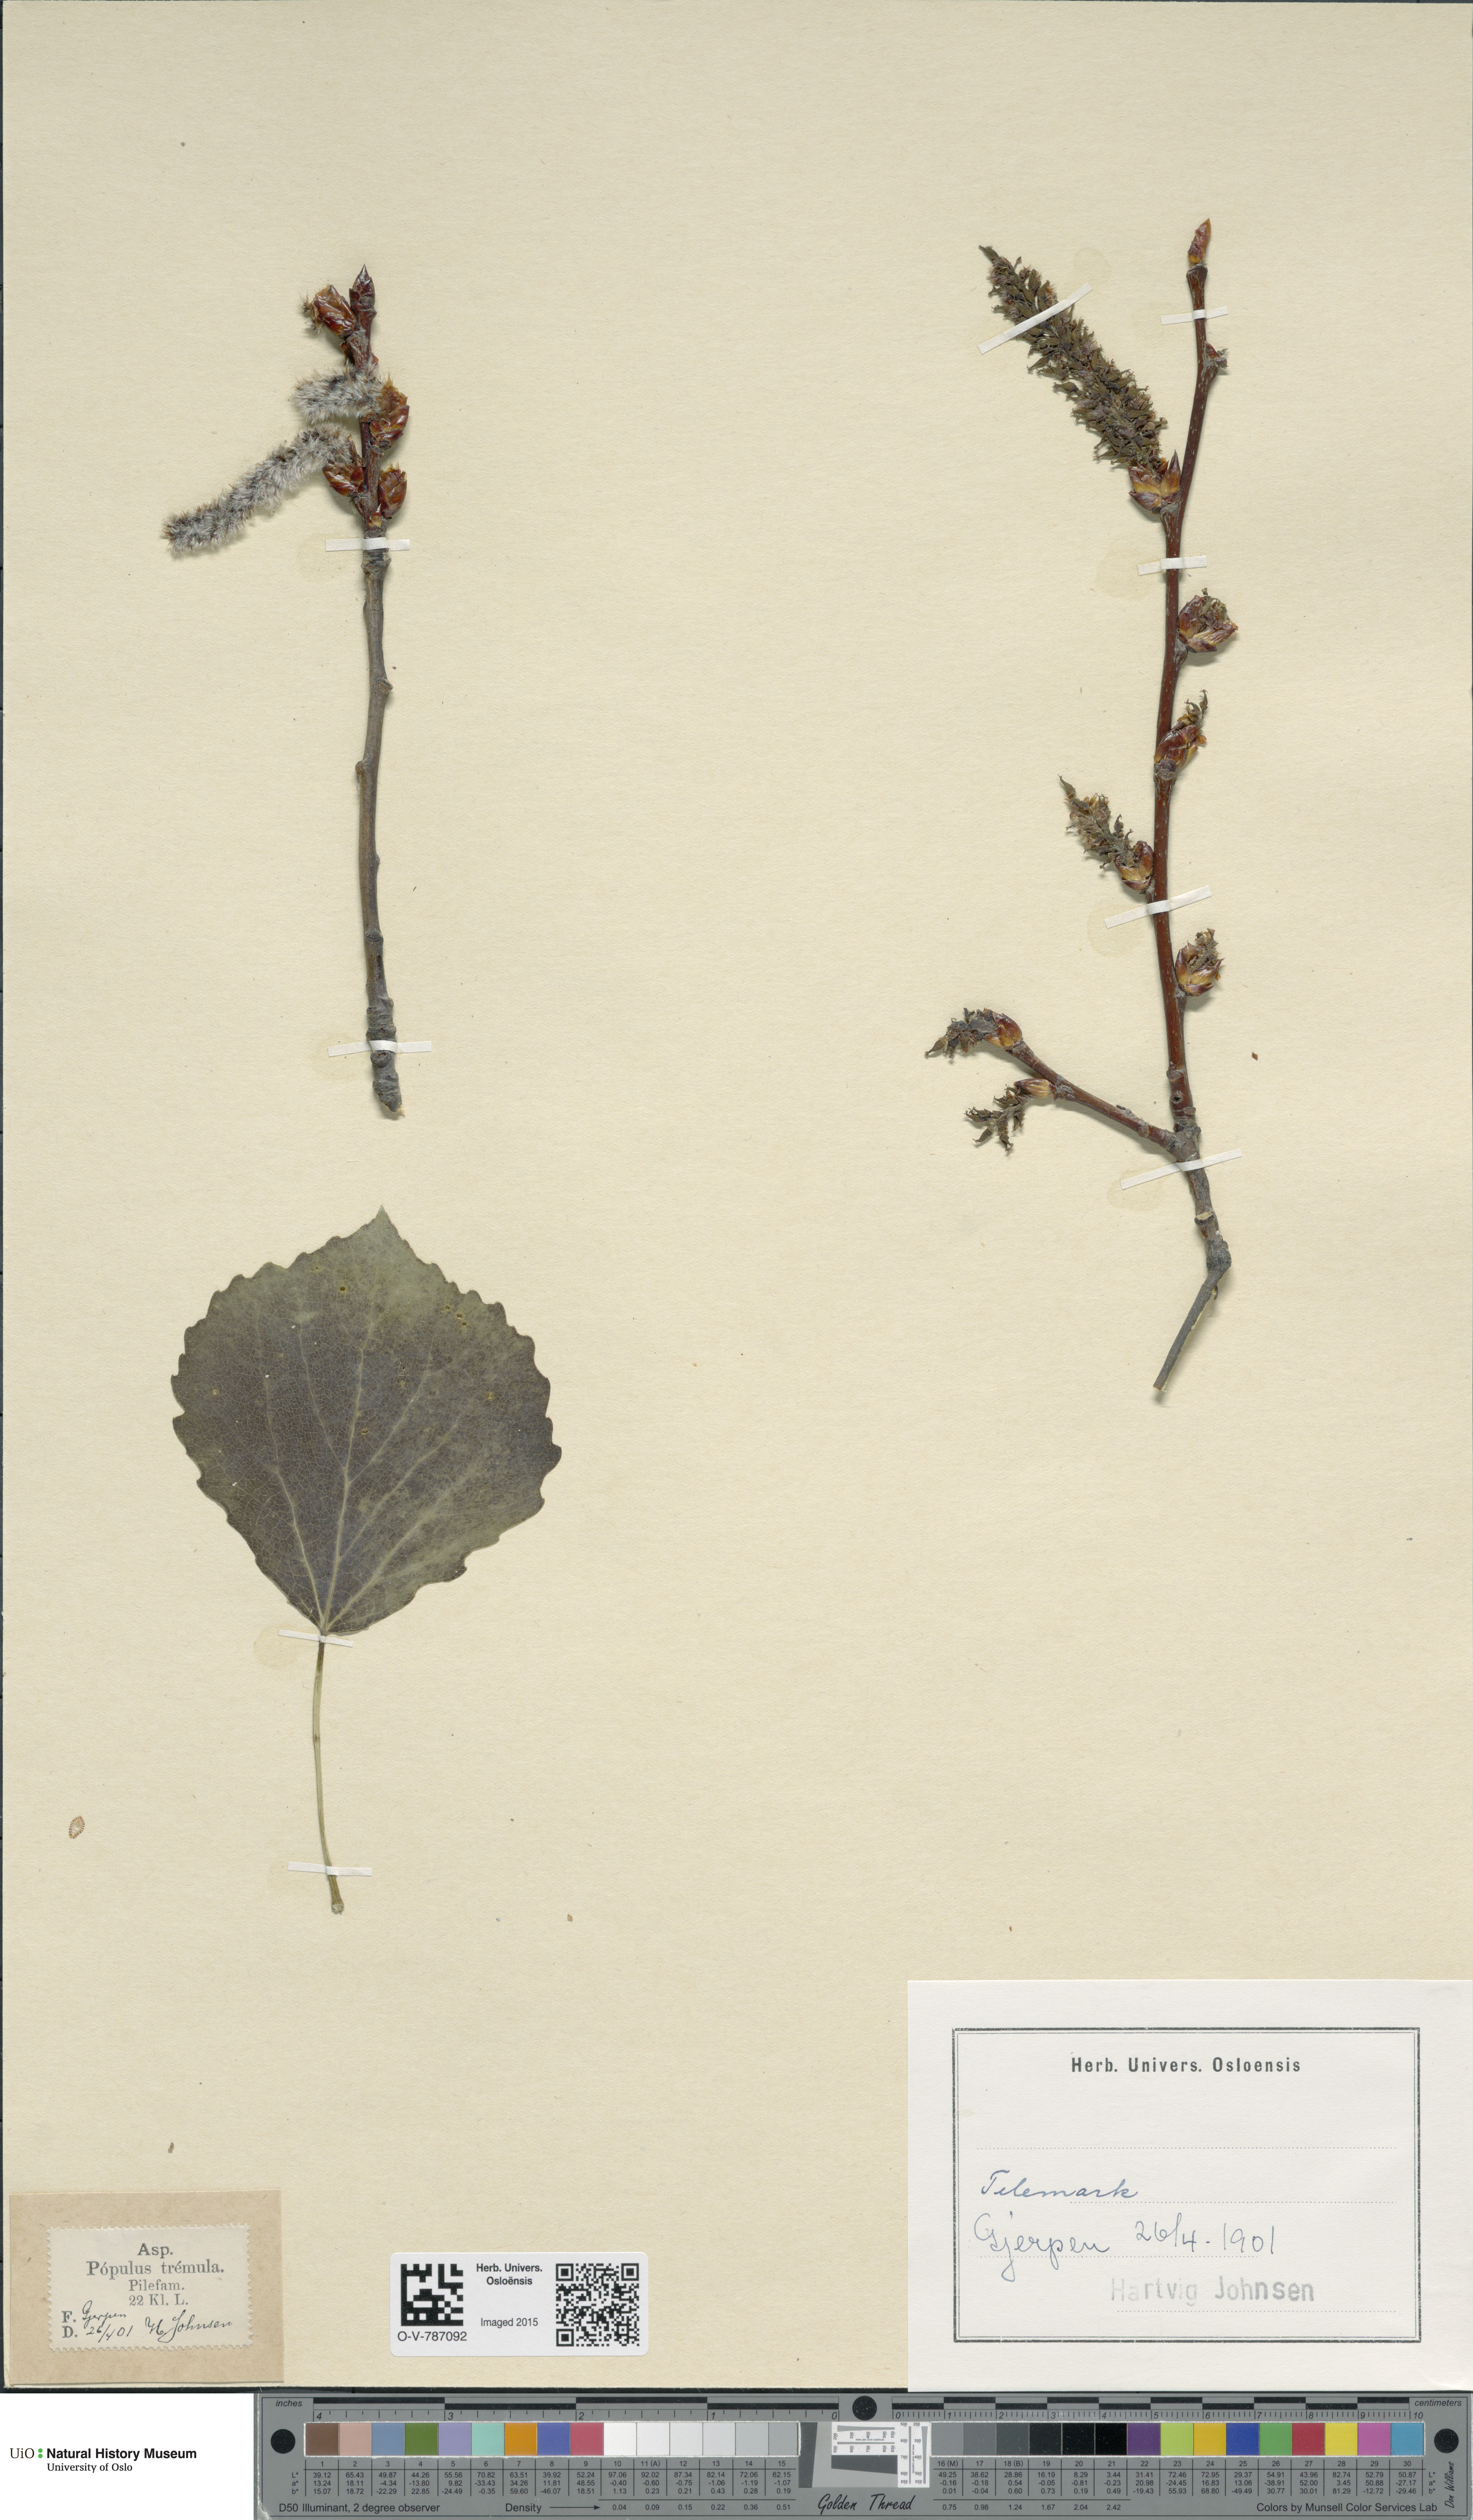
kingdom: Plantae
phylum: Tracheophyta
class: Magnoliopsida
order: Malpighiales
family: Salicaceae
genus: Populus
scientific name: Populus tremula
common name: European aspen
